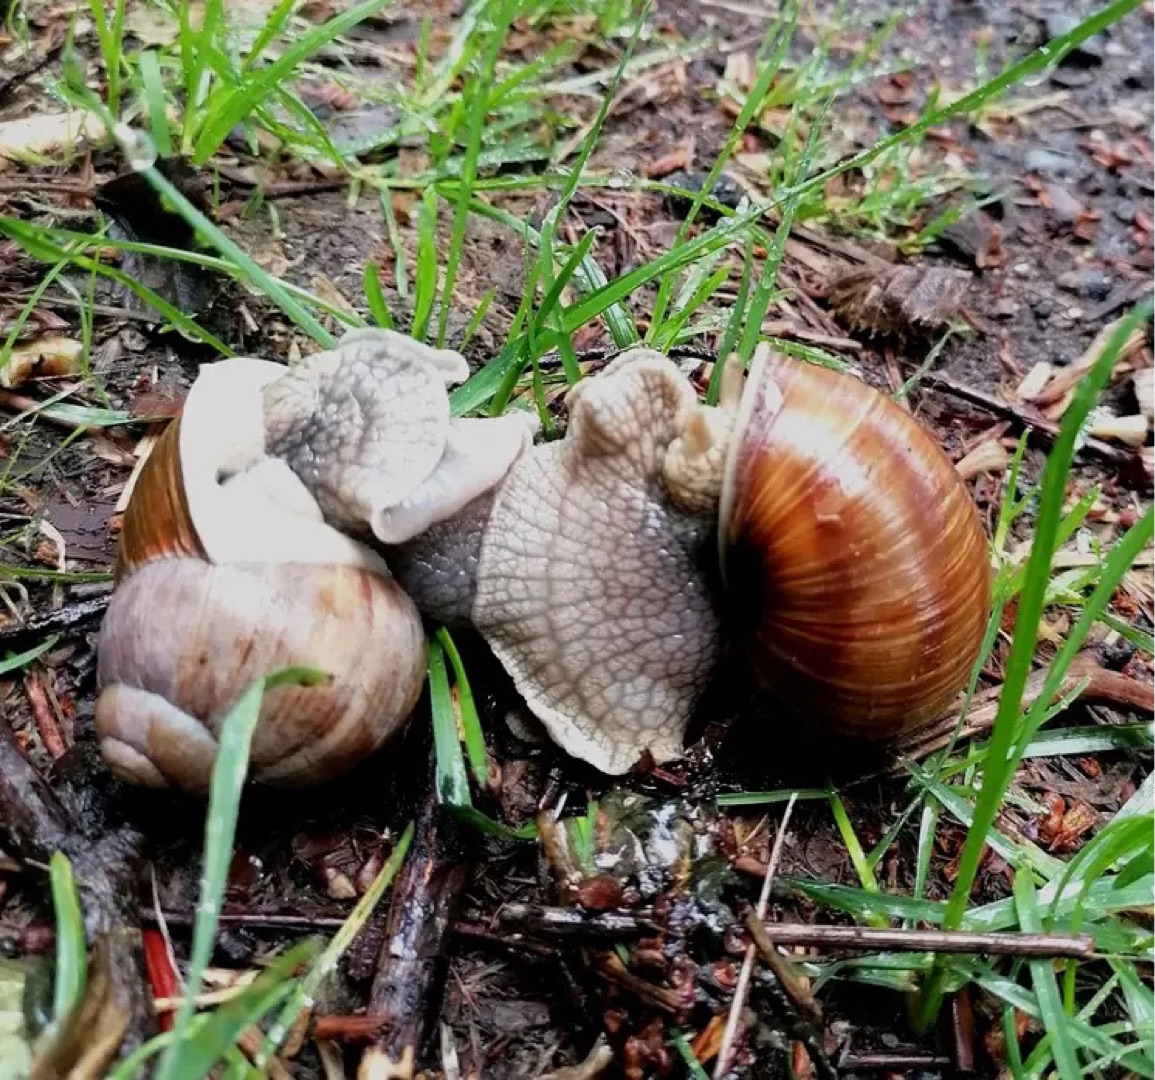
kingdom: Animalia
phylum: Mollusca
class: Gastropoda
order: Stylommatophora
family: Helicidae
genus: Helix
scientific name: Helix pomatia
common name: Vinbjergsnegl
